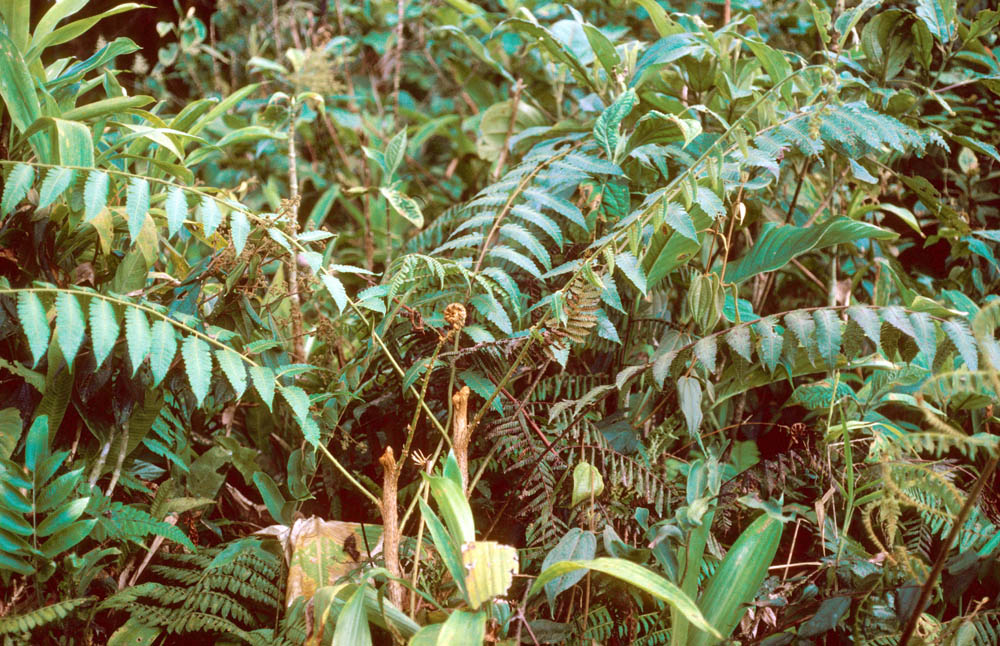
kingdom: Plantae
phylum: Tracheophyta
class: Polypodiopsida
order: Cyatheales
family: Cyatheaceae
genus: Cyathea
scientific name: Cyathea assurgens
